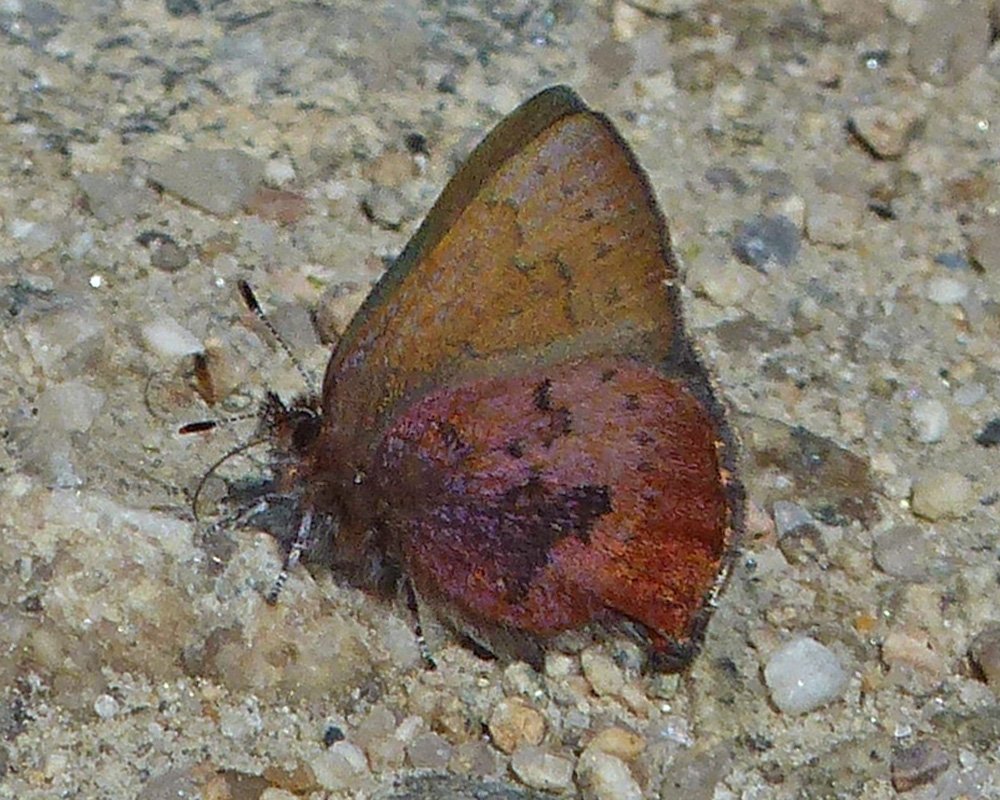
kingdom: Animalia
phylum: Arthropoda
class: Insecta
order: Lepidoptera
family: Lycaenidae
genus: Incisalia
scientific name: Incisalia irioides
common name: Brown Elfin
